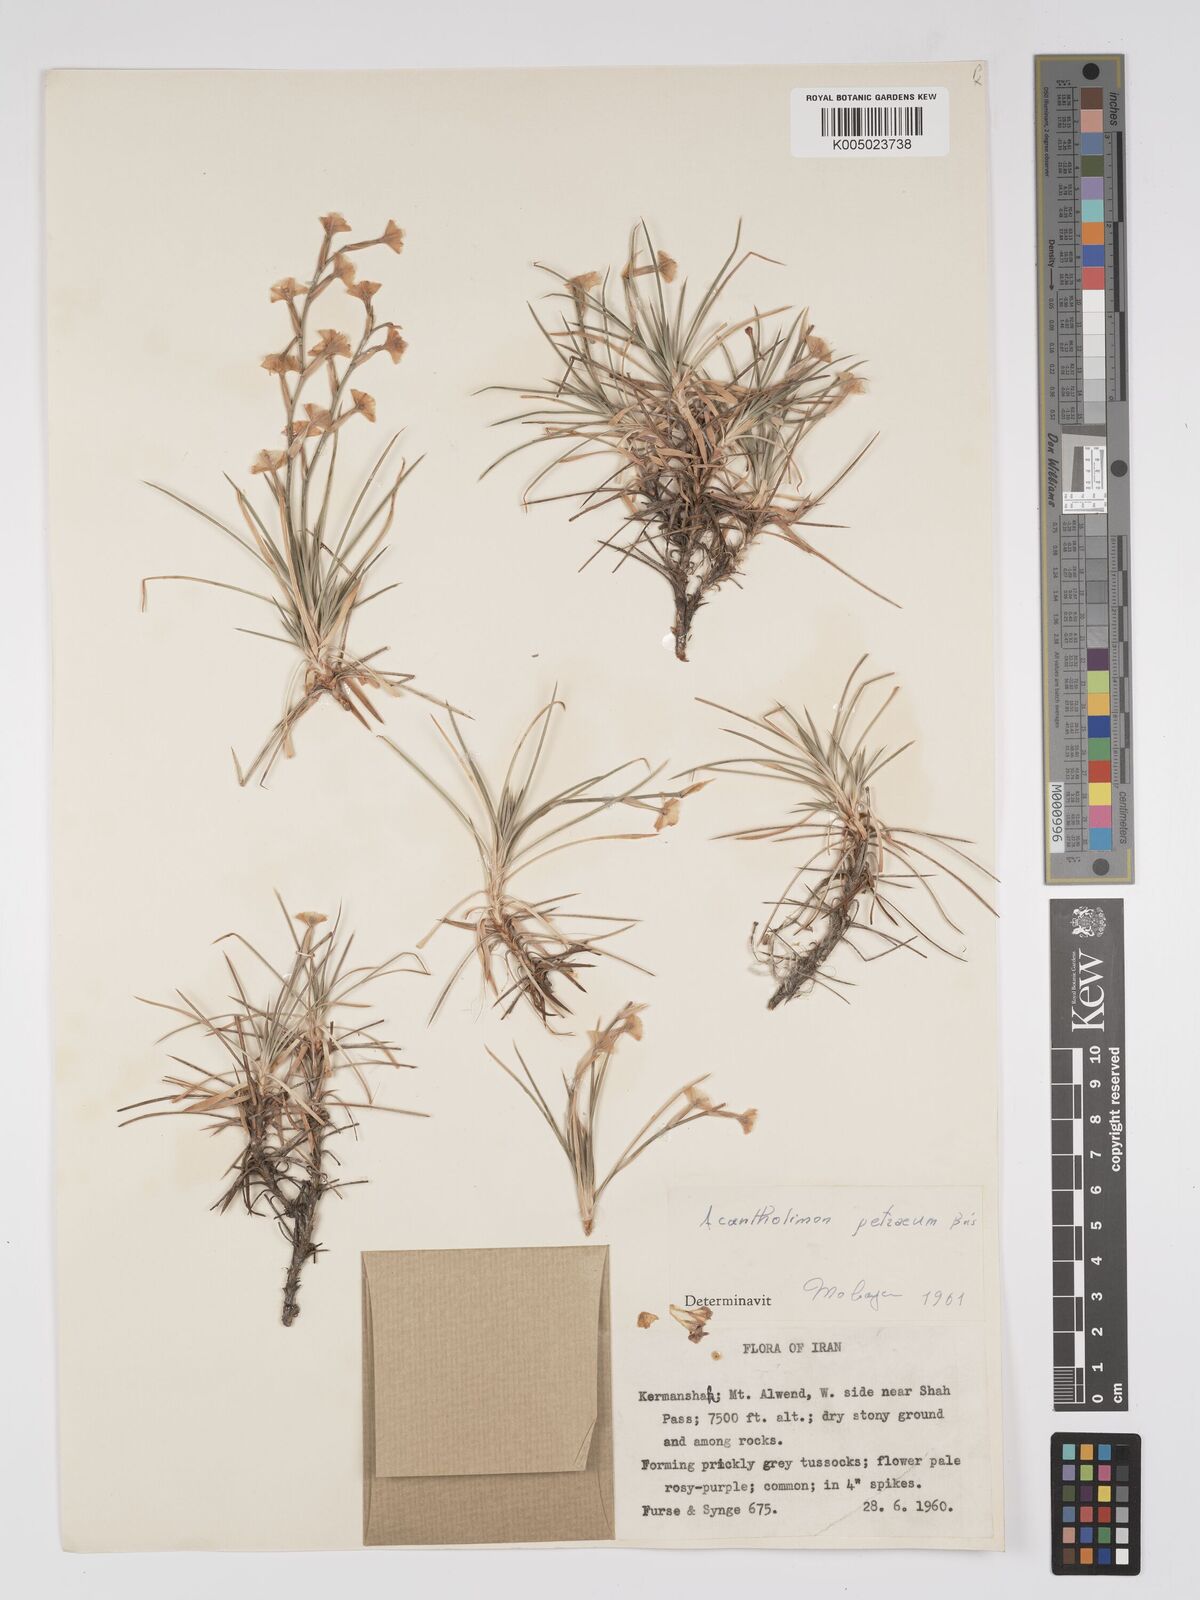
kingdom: Plantae
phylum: Tracheophyta
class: Magnoliopsida
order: Caryophyllales
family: Plumbaginaceae
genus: Acantholimon
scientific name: Acantholimon petraeum
